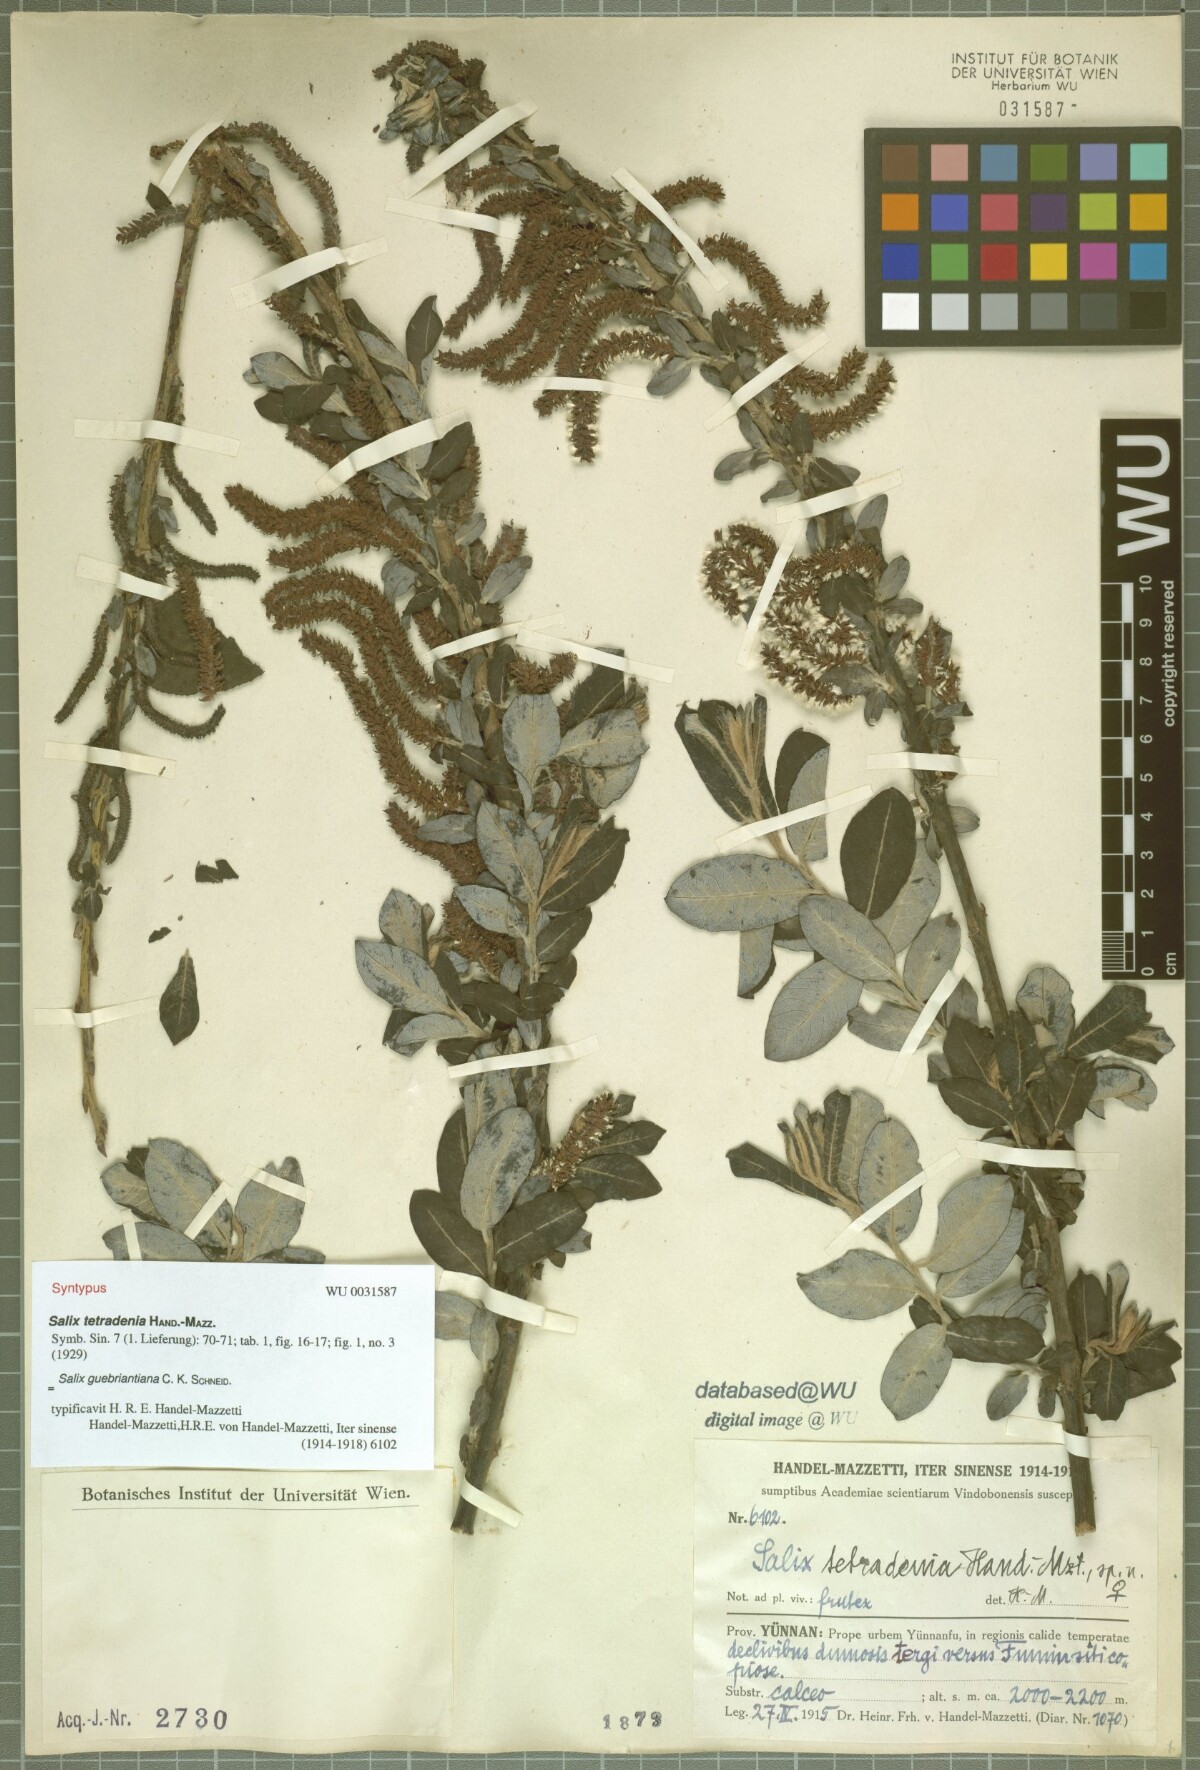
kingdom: Plantae
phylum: Tracheophyta
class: Magnoliopsida
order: Malpighiales
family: Salicaceae
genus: Salix
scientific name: Salix radinostachya
